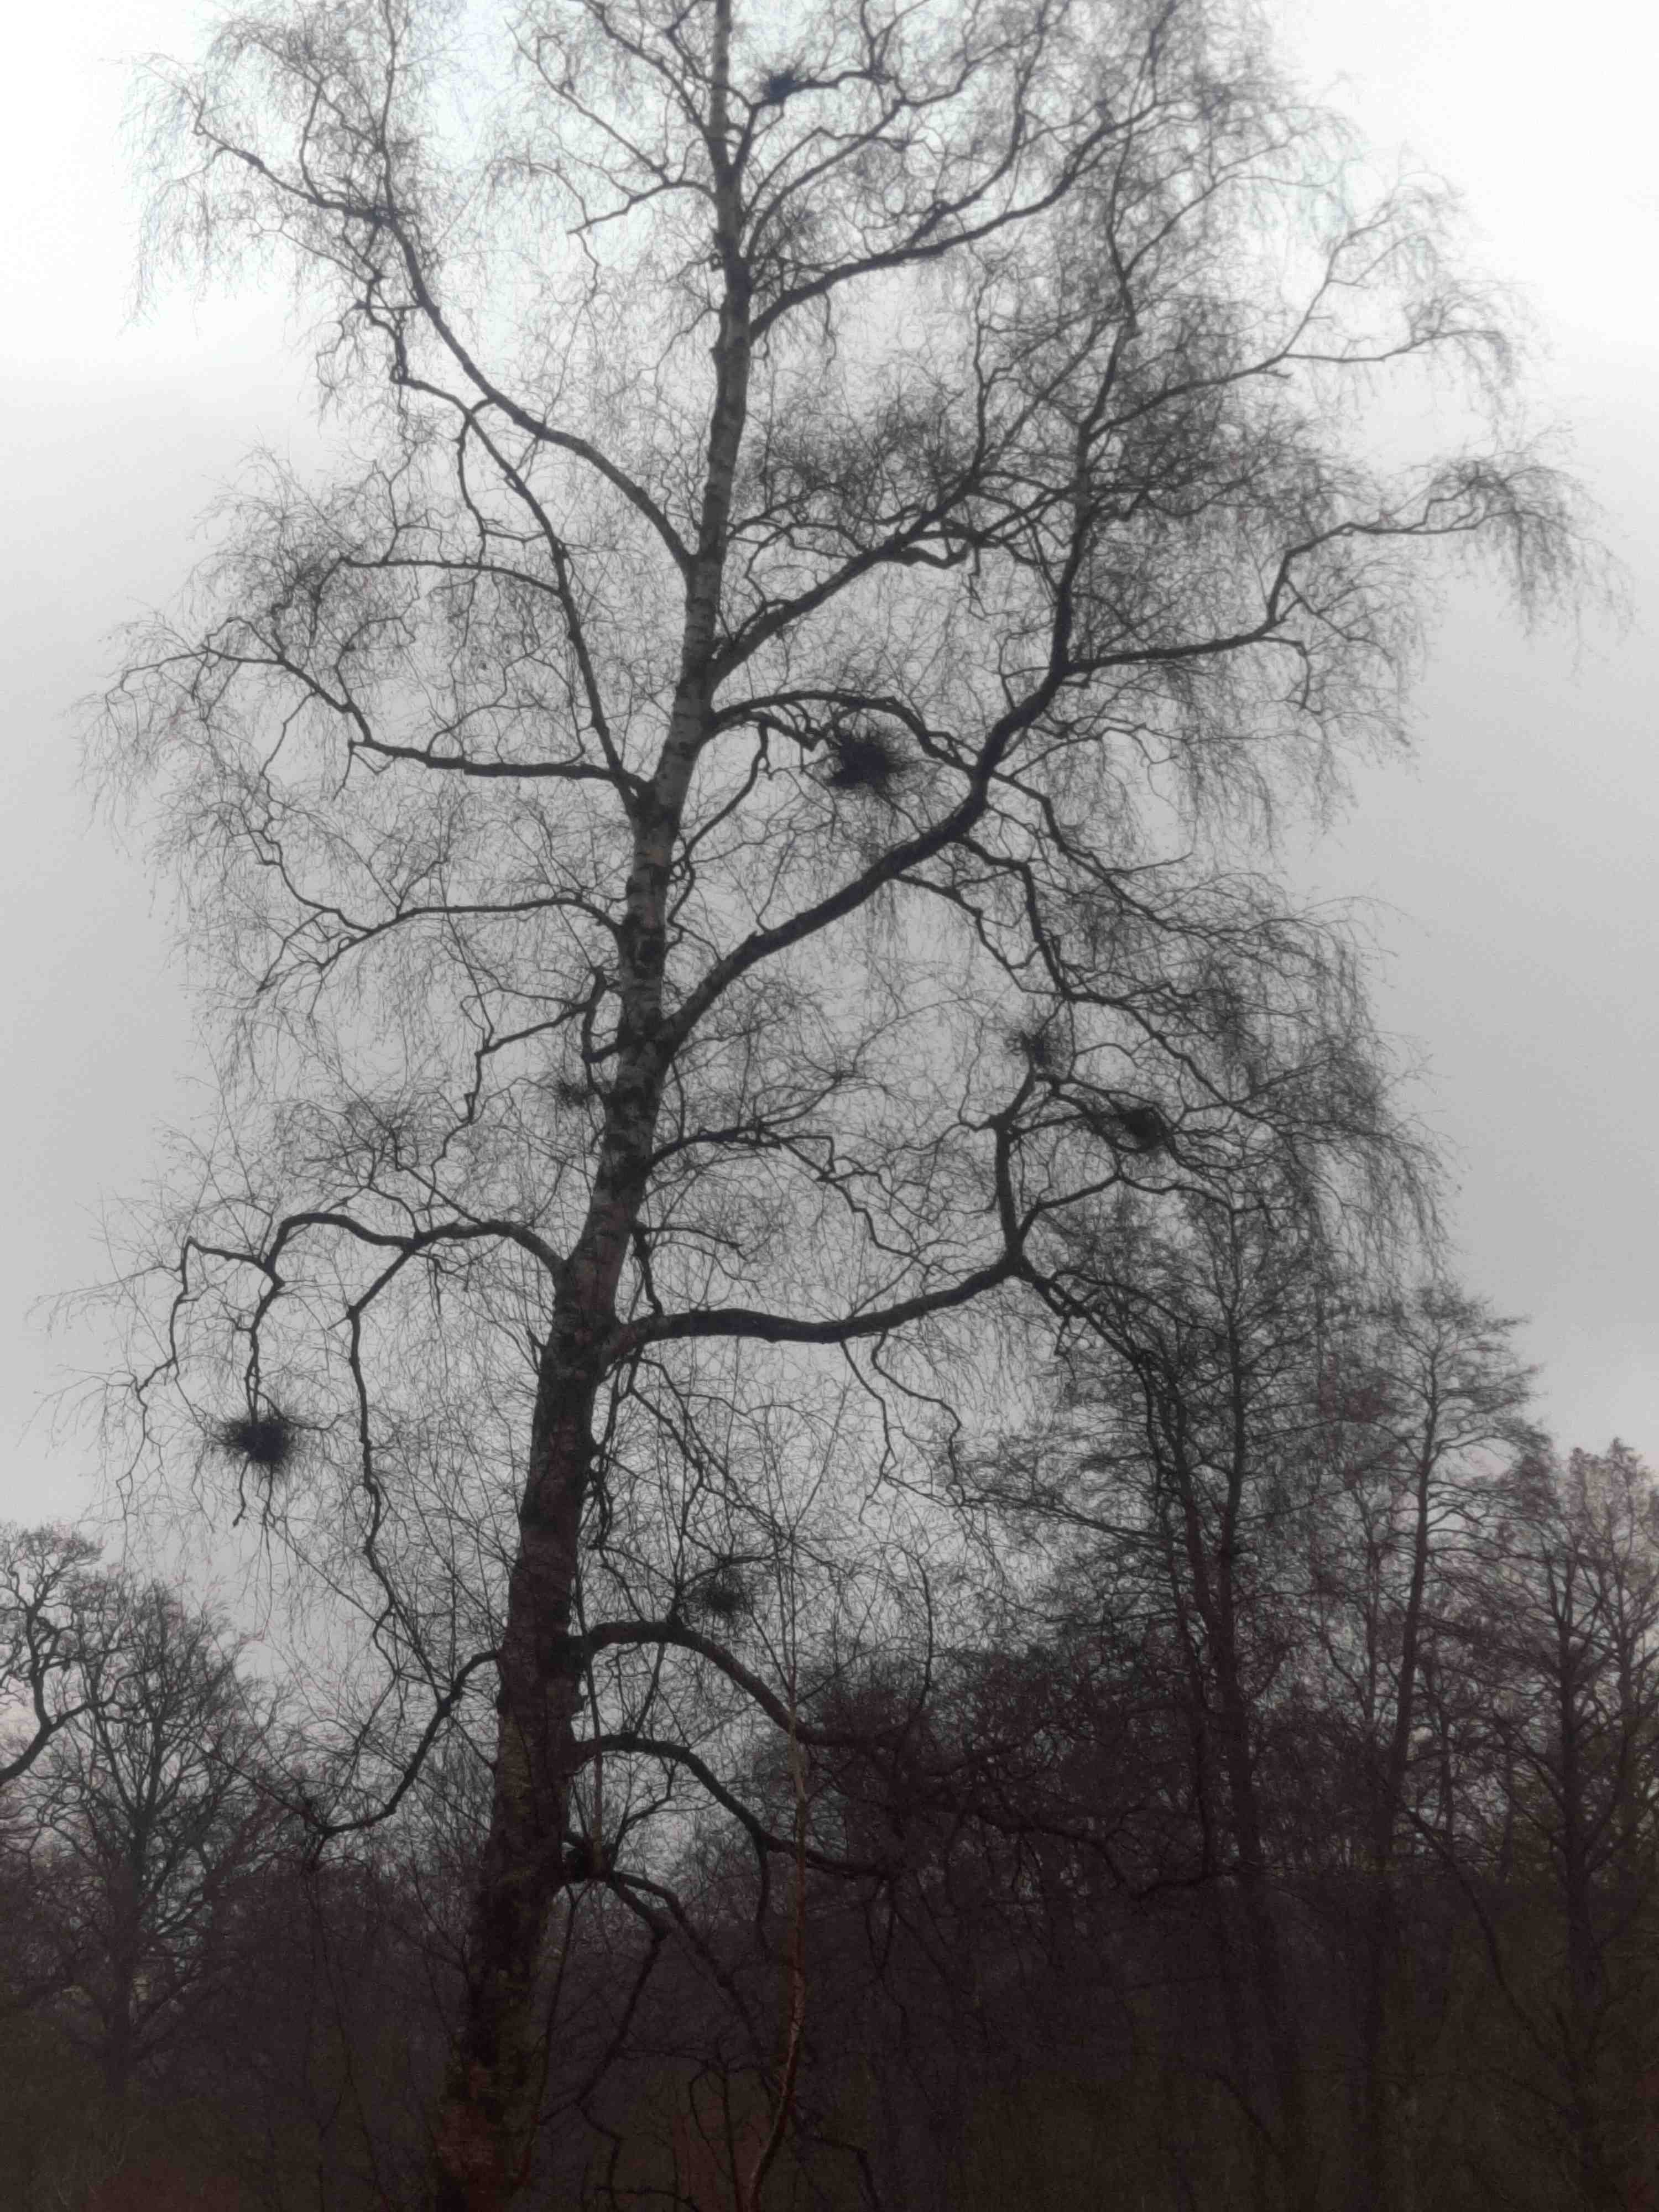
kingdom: Fungi
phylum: Ascomycota
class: Taphrinomycetes
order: Taphrinales
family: Taphrinaceae
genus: Taphrina
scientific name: Taphrina betulina
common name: hekse-sækdug
